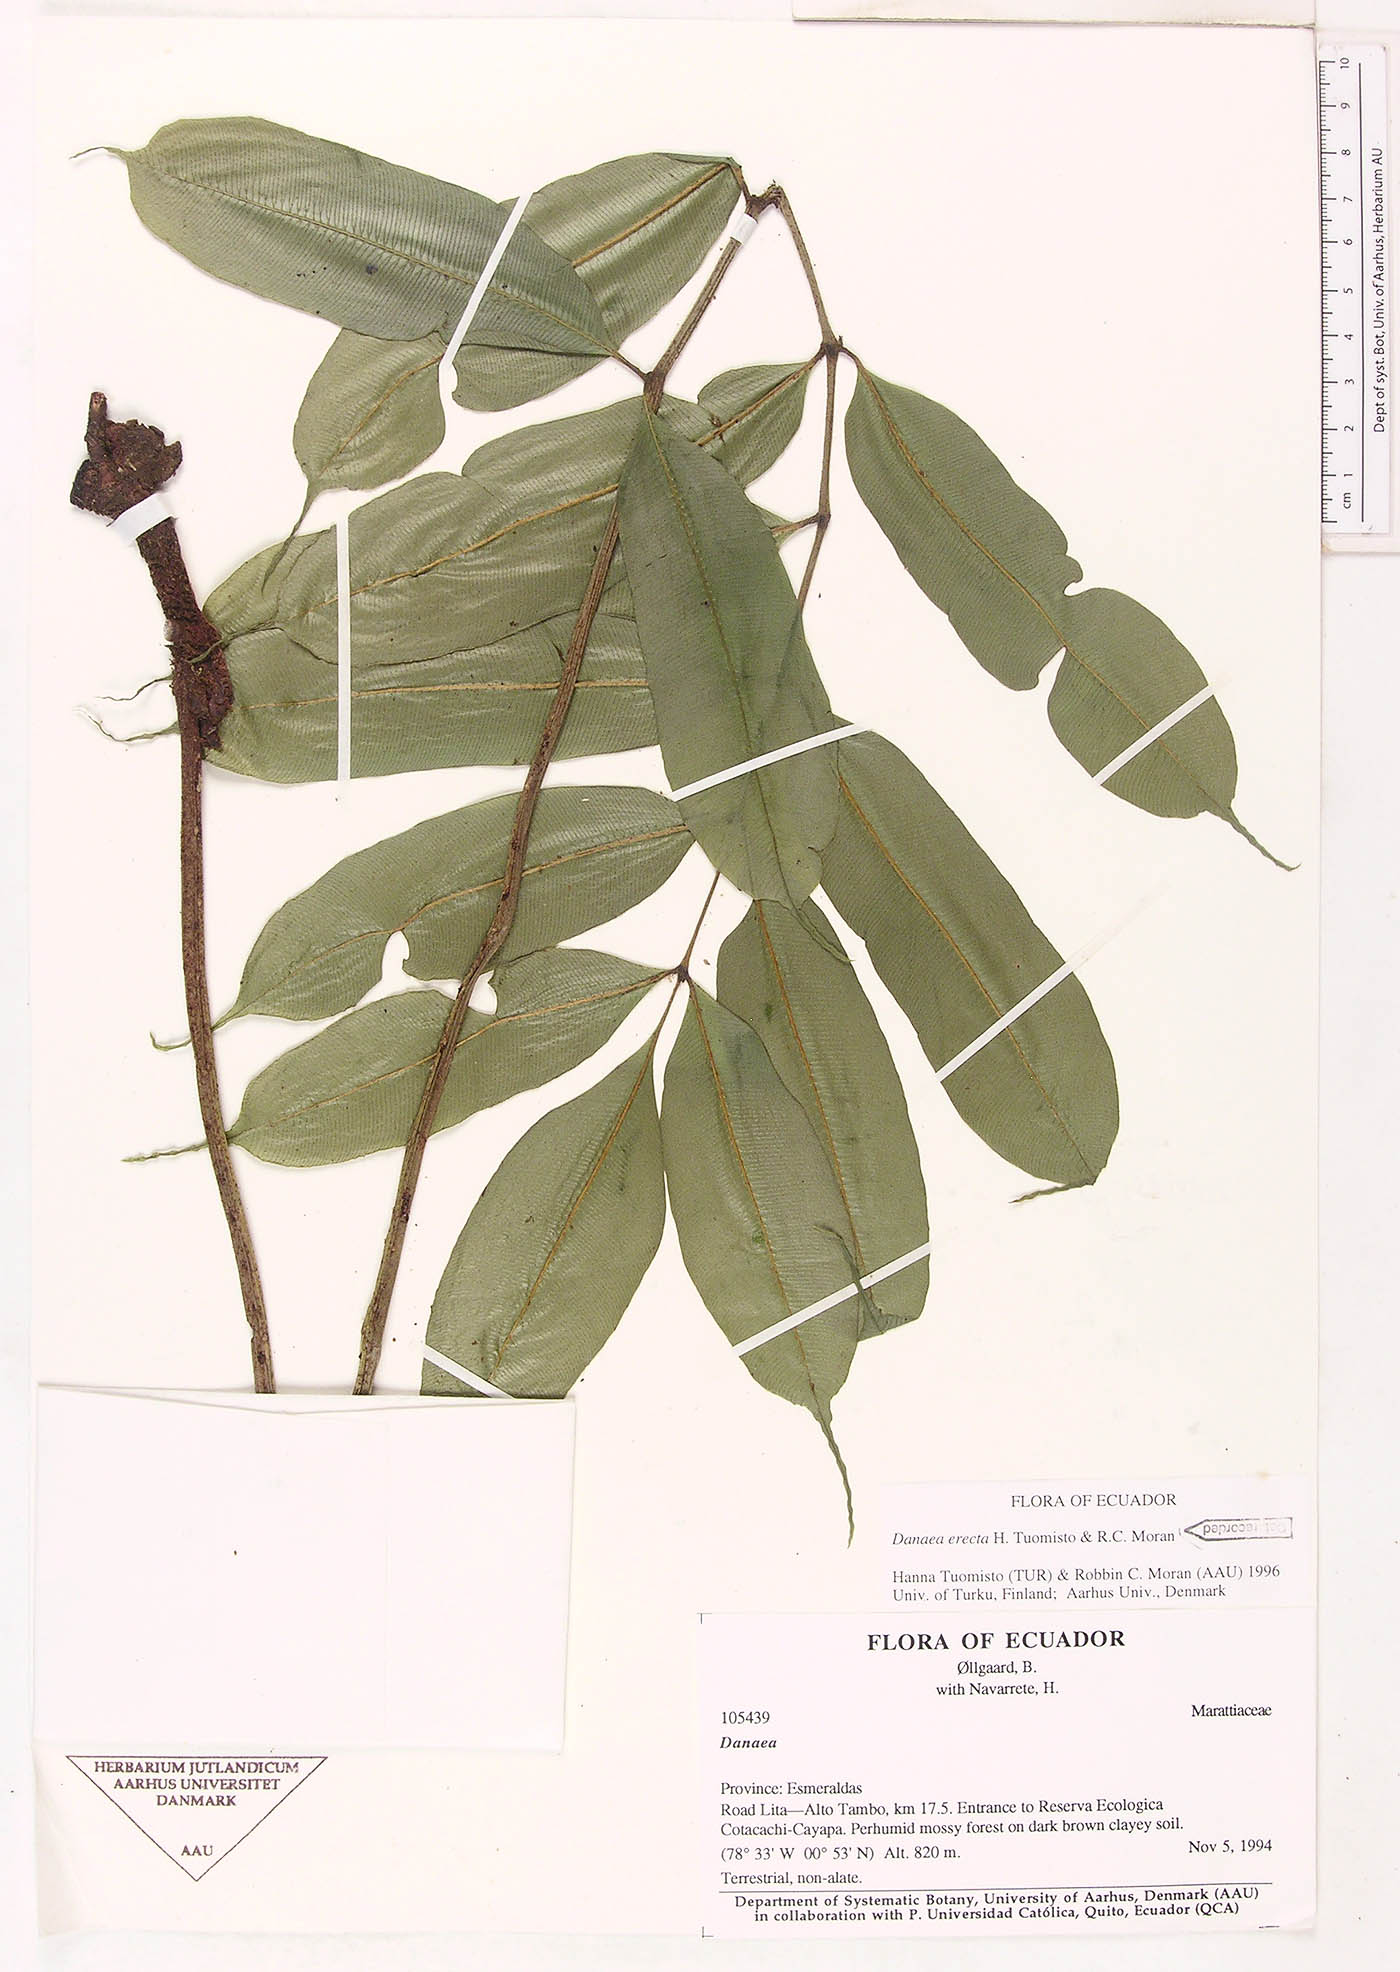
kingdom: Plantae
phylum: Tracheophyta
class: Polypodiopsida
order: Marattiales
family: Marattiaceae
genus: Danaea
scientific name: Danaea
